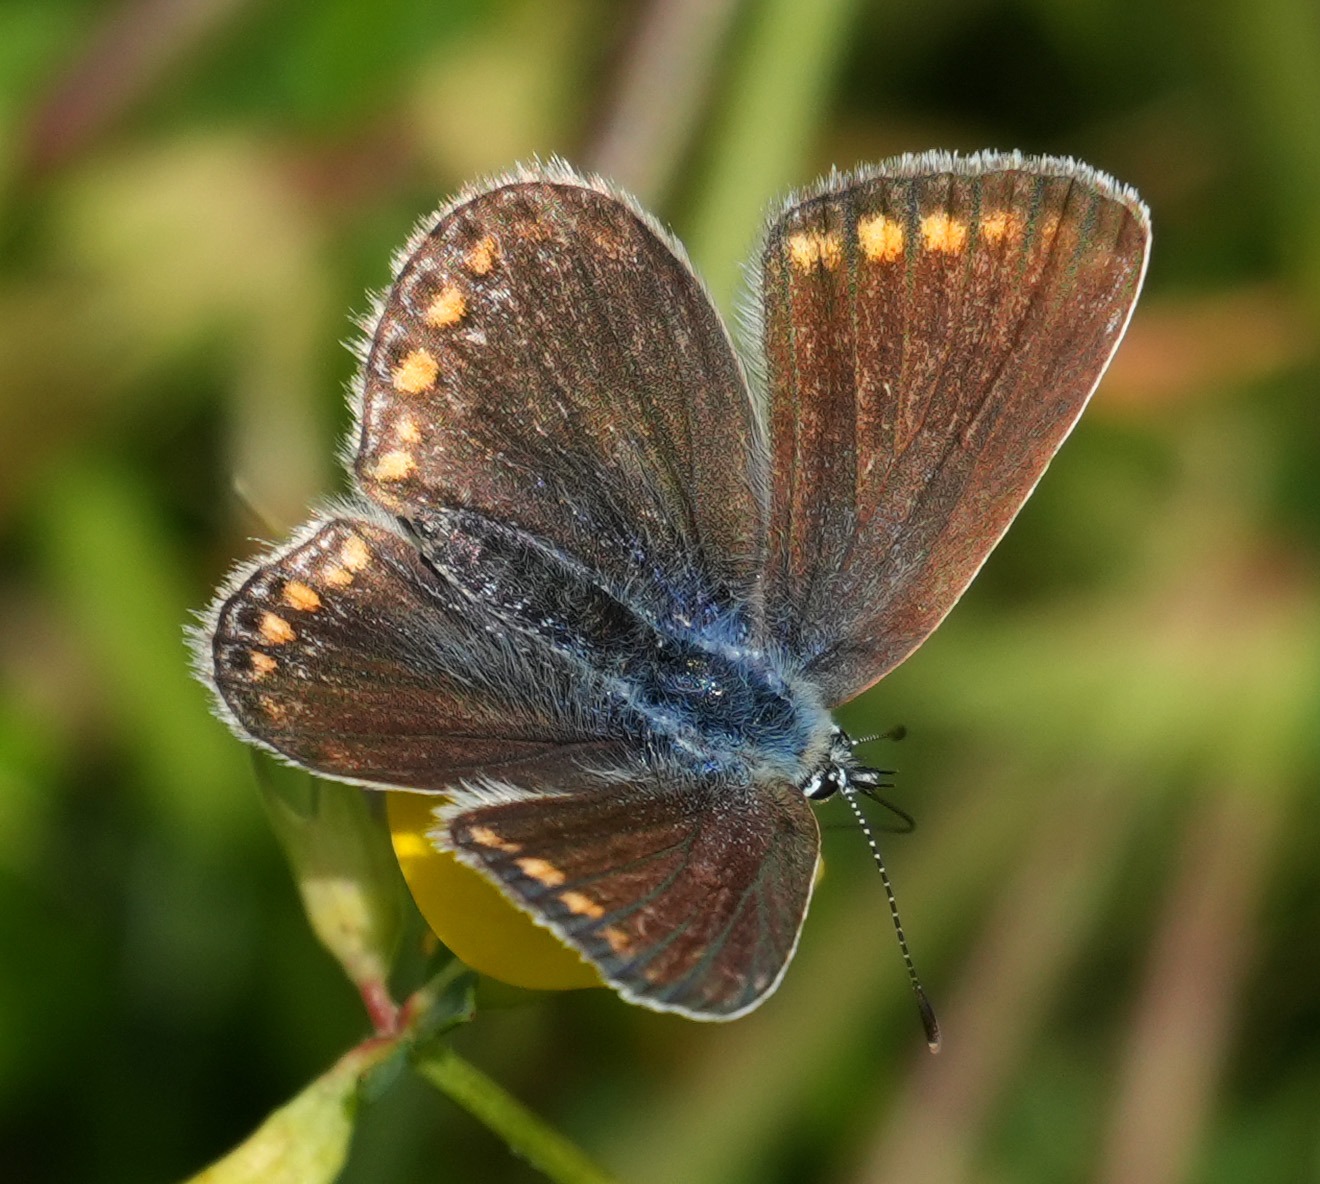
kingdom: Animalia
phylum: Arthropoda
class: Insecta
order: Lepidoptera
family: Lycaenidae
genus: Polyommatus
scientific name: Polyommatus icarus
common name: Almindelig blåfugl
